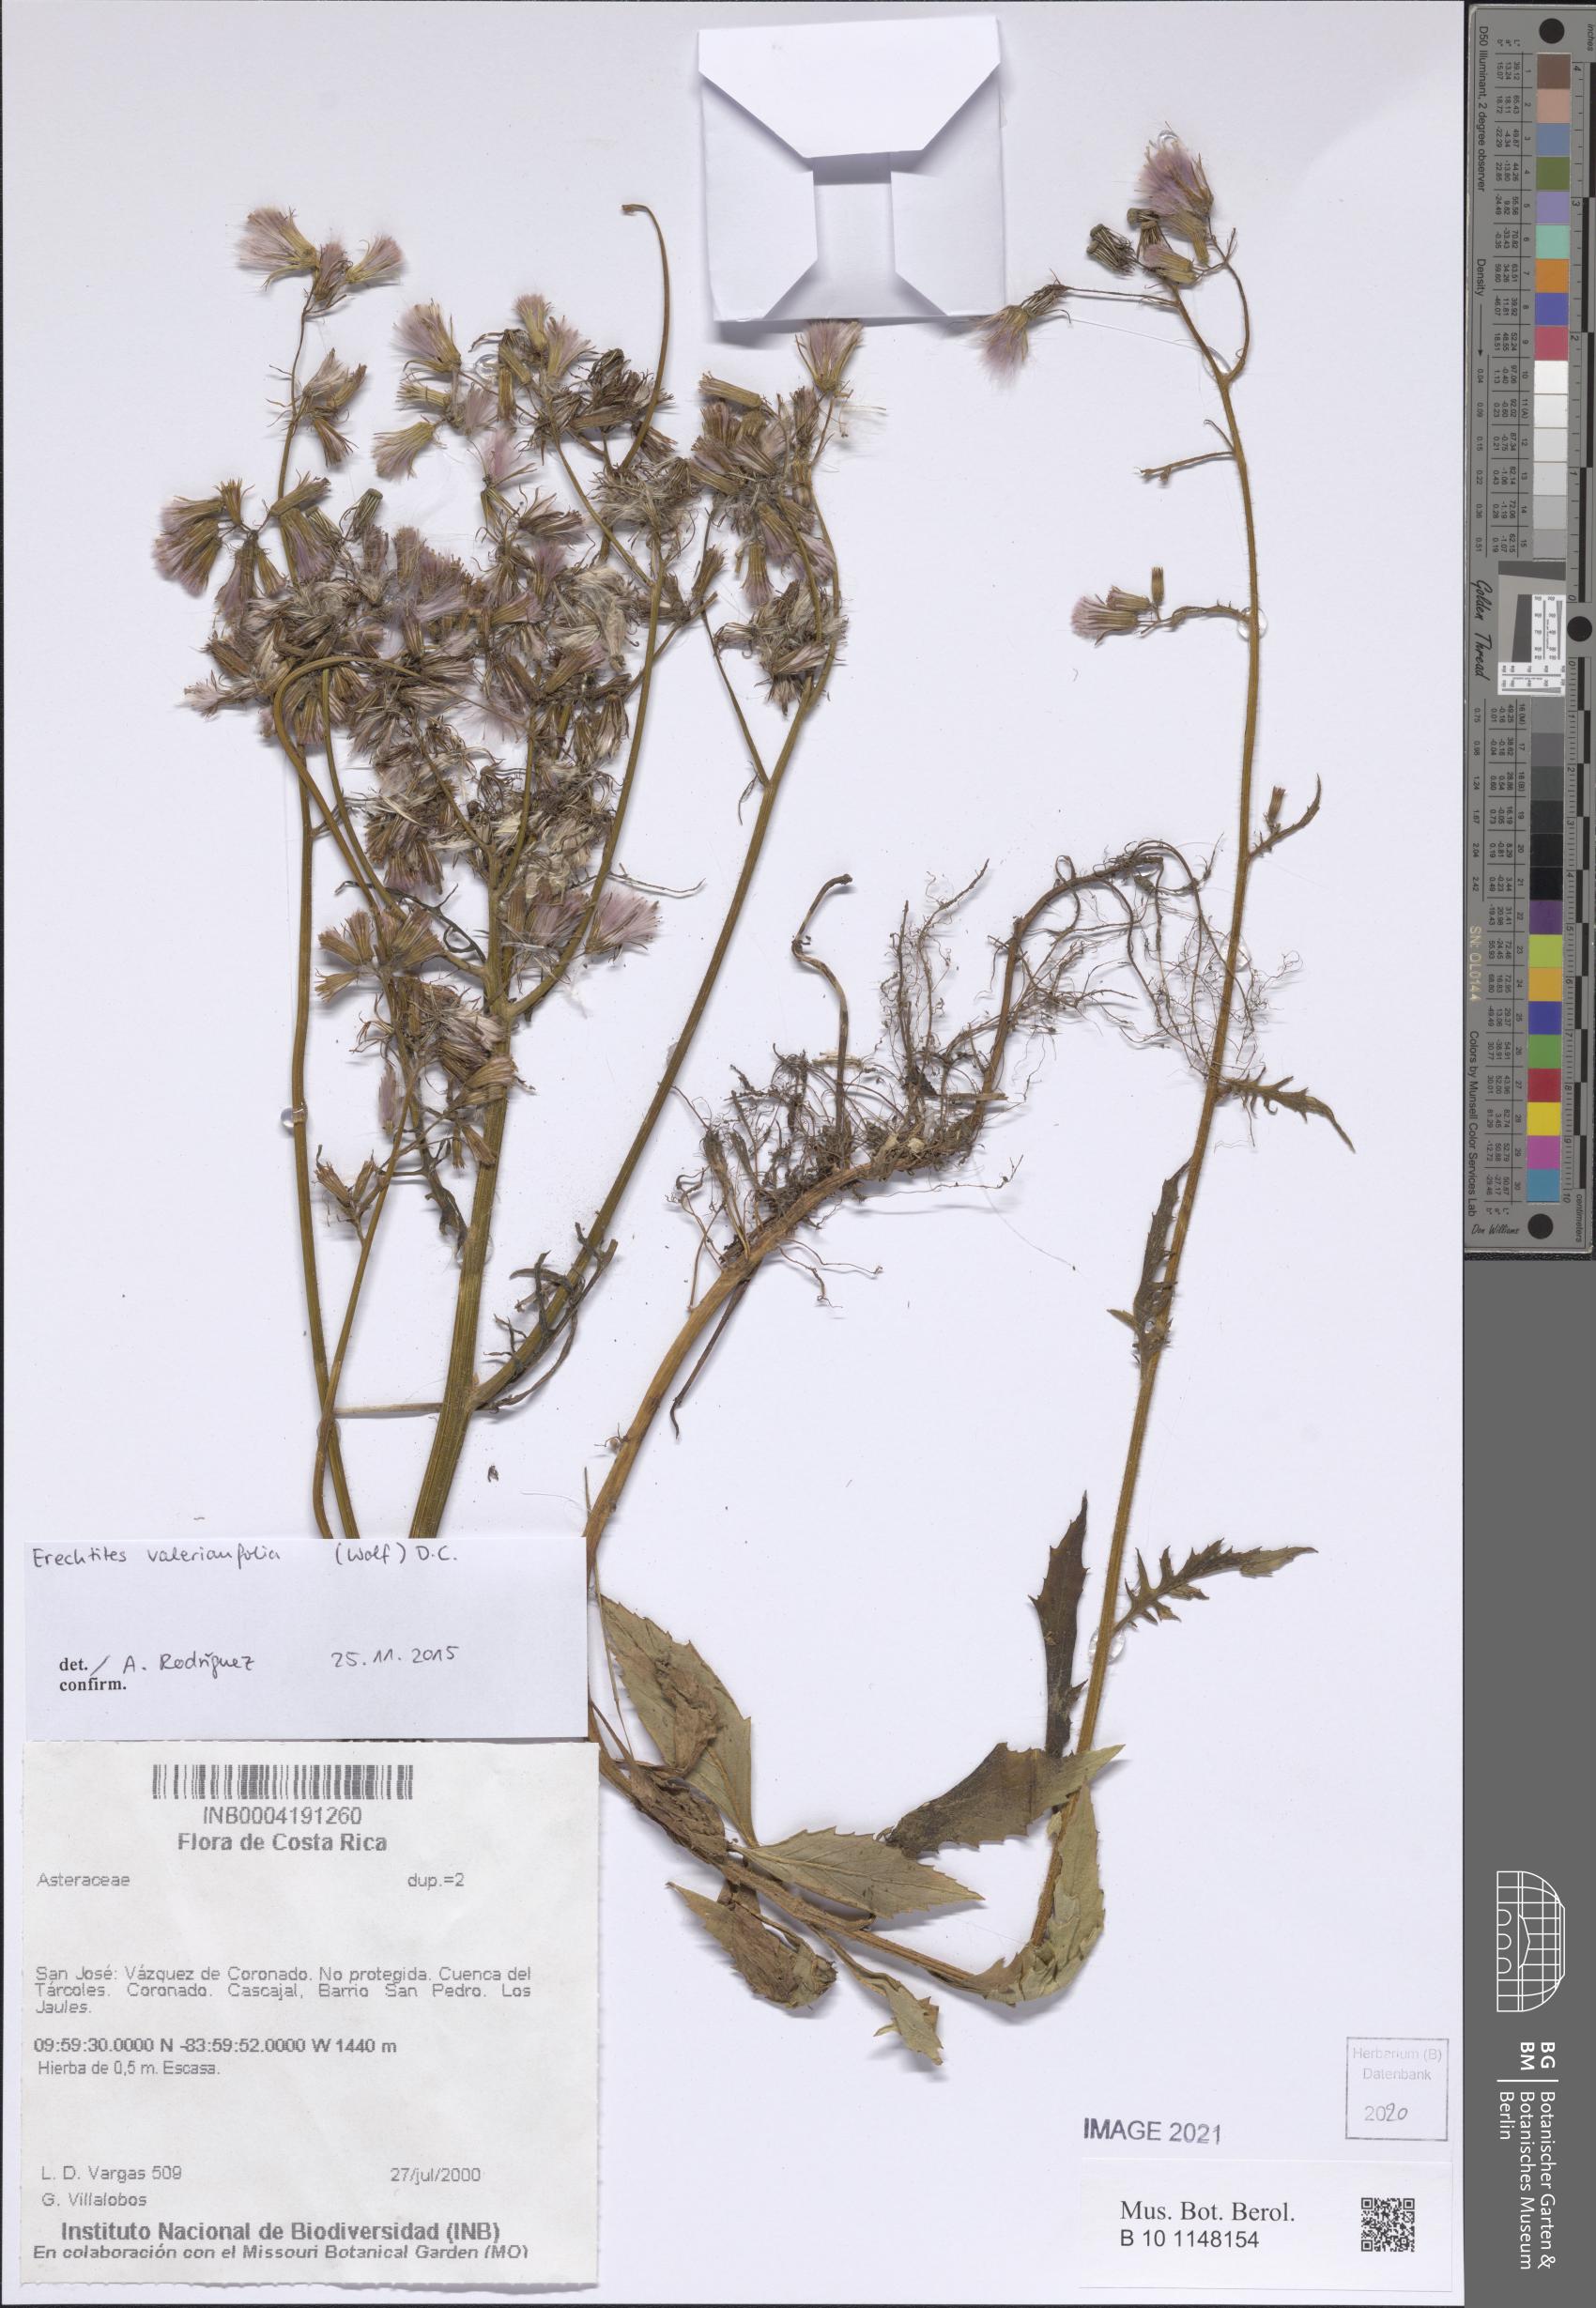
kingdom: Plantae
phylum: Tracheophyta
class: Magnoliopsida
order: Asterales
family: Asteraceae
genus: Erechtites
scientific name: Erechtites valerianifolius
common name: Tropical burnweed
